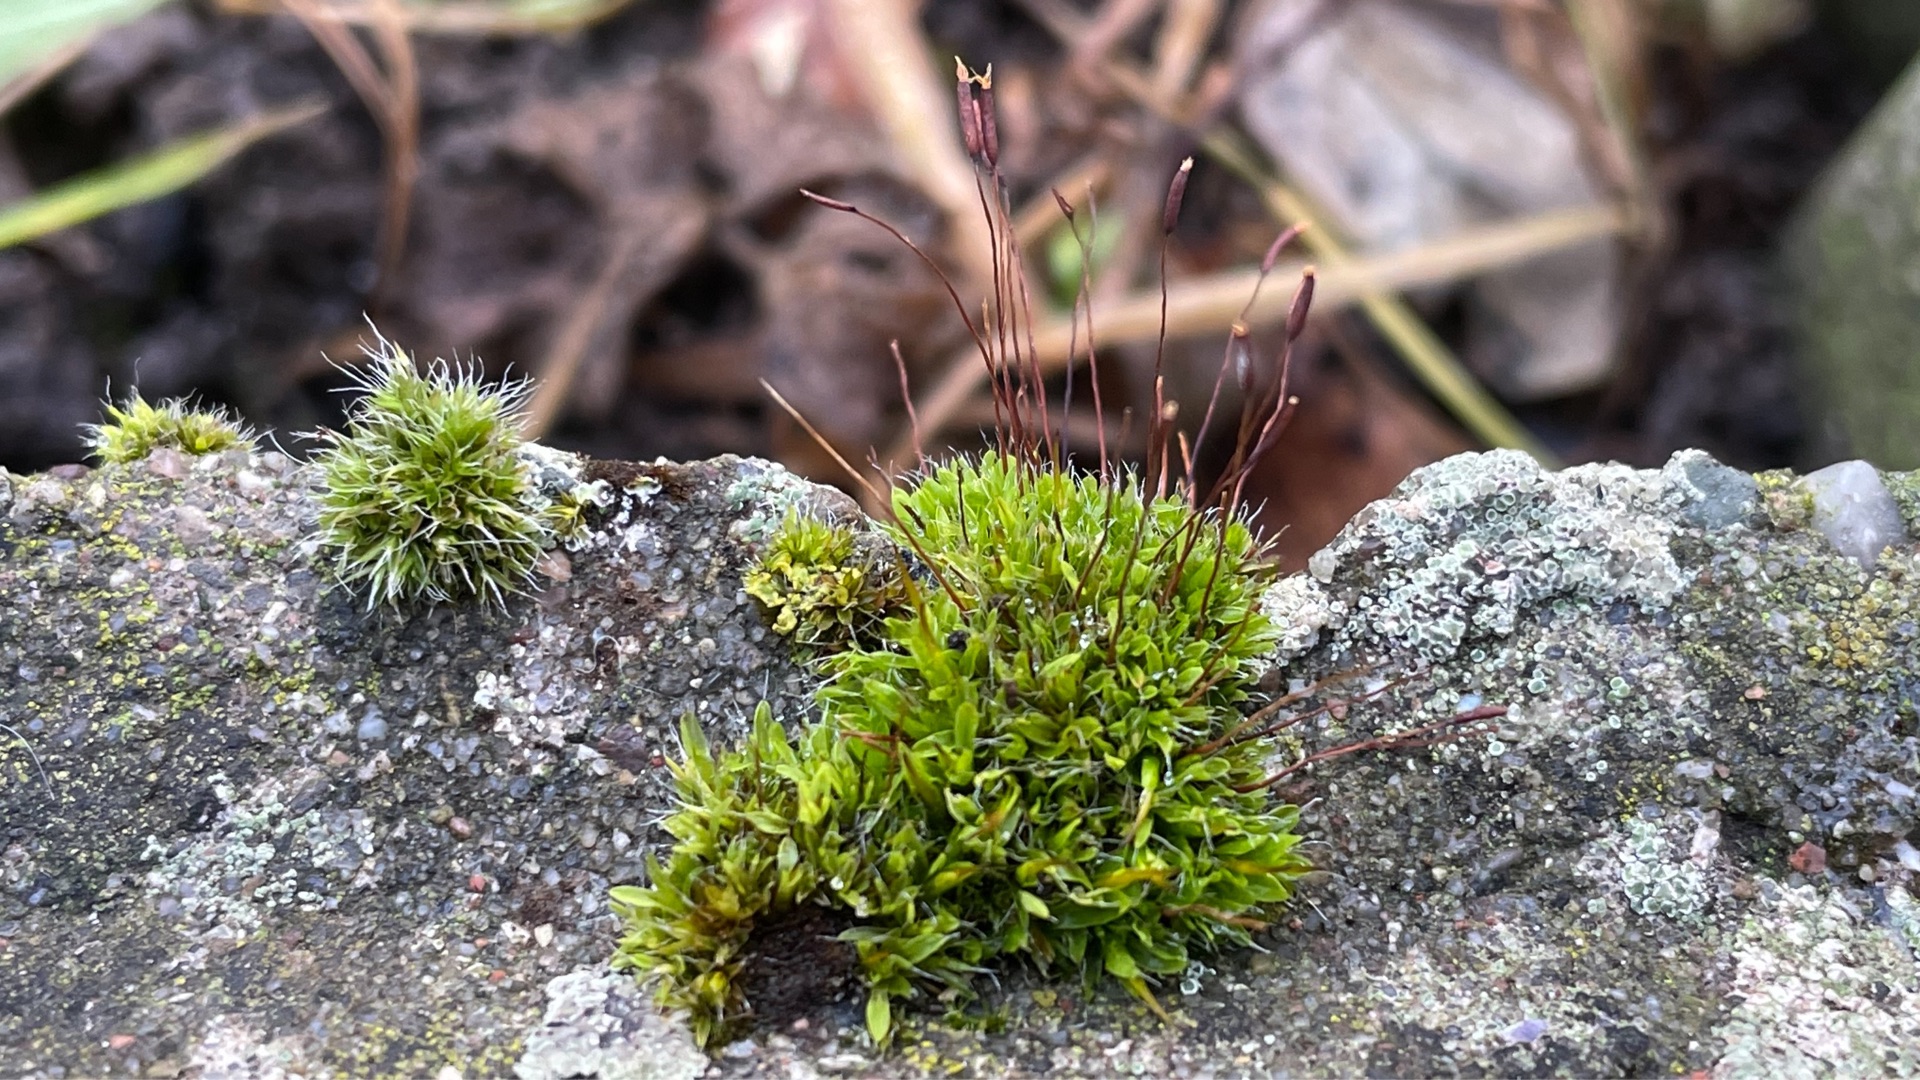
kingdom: Plantae
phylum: Bryophyta
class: Bryopsida
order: Pottiales
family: Pottiaceae
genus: Tortula
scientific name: Tortula muralis
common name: Mur-snotand
